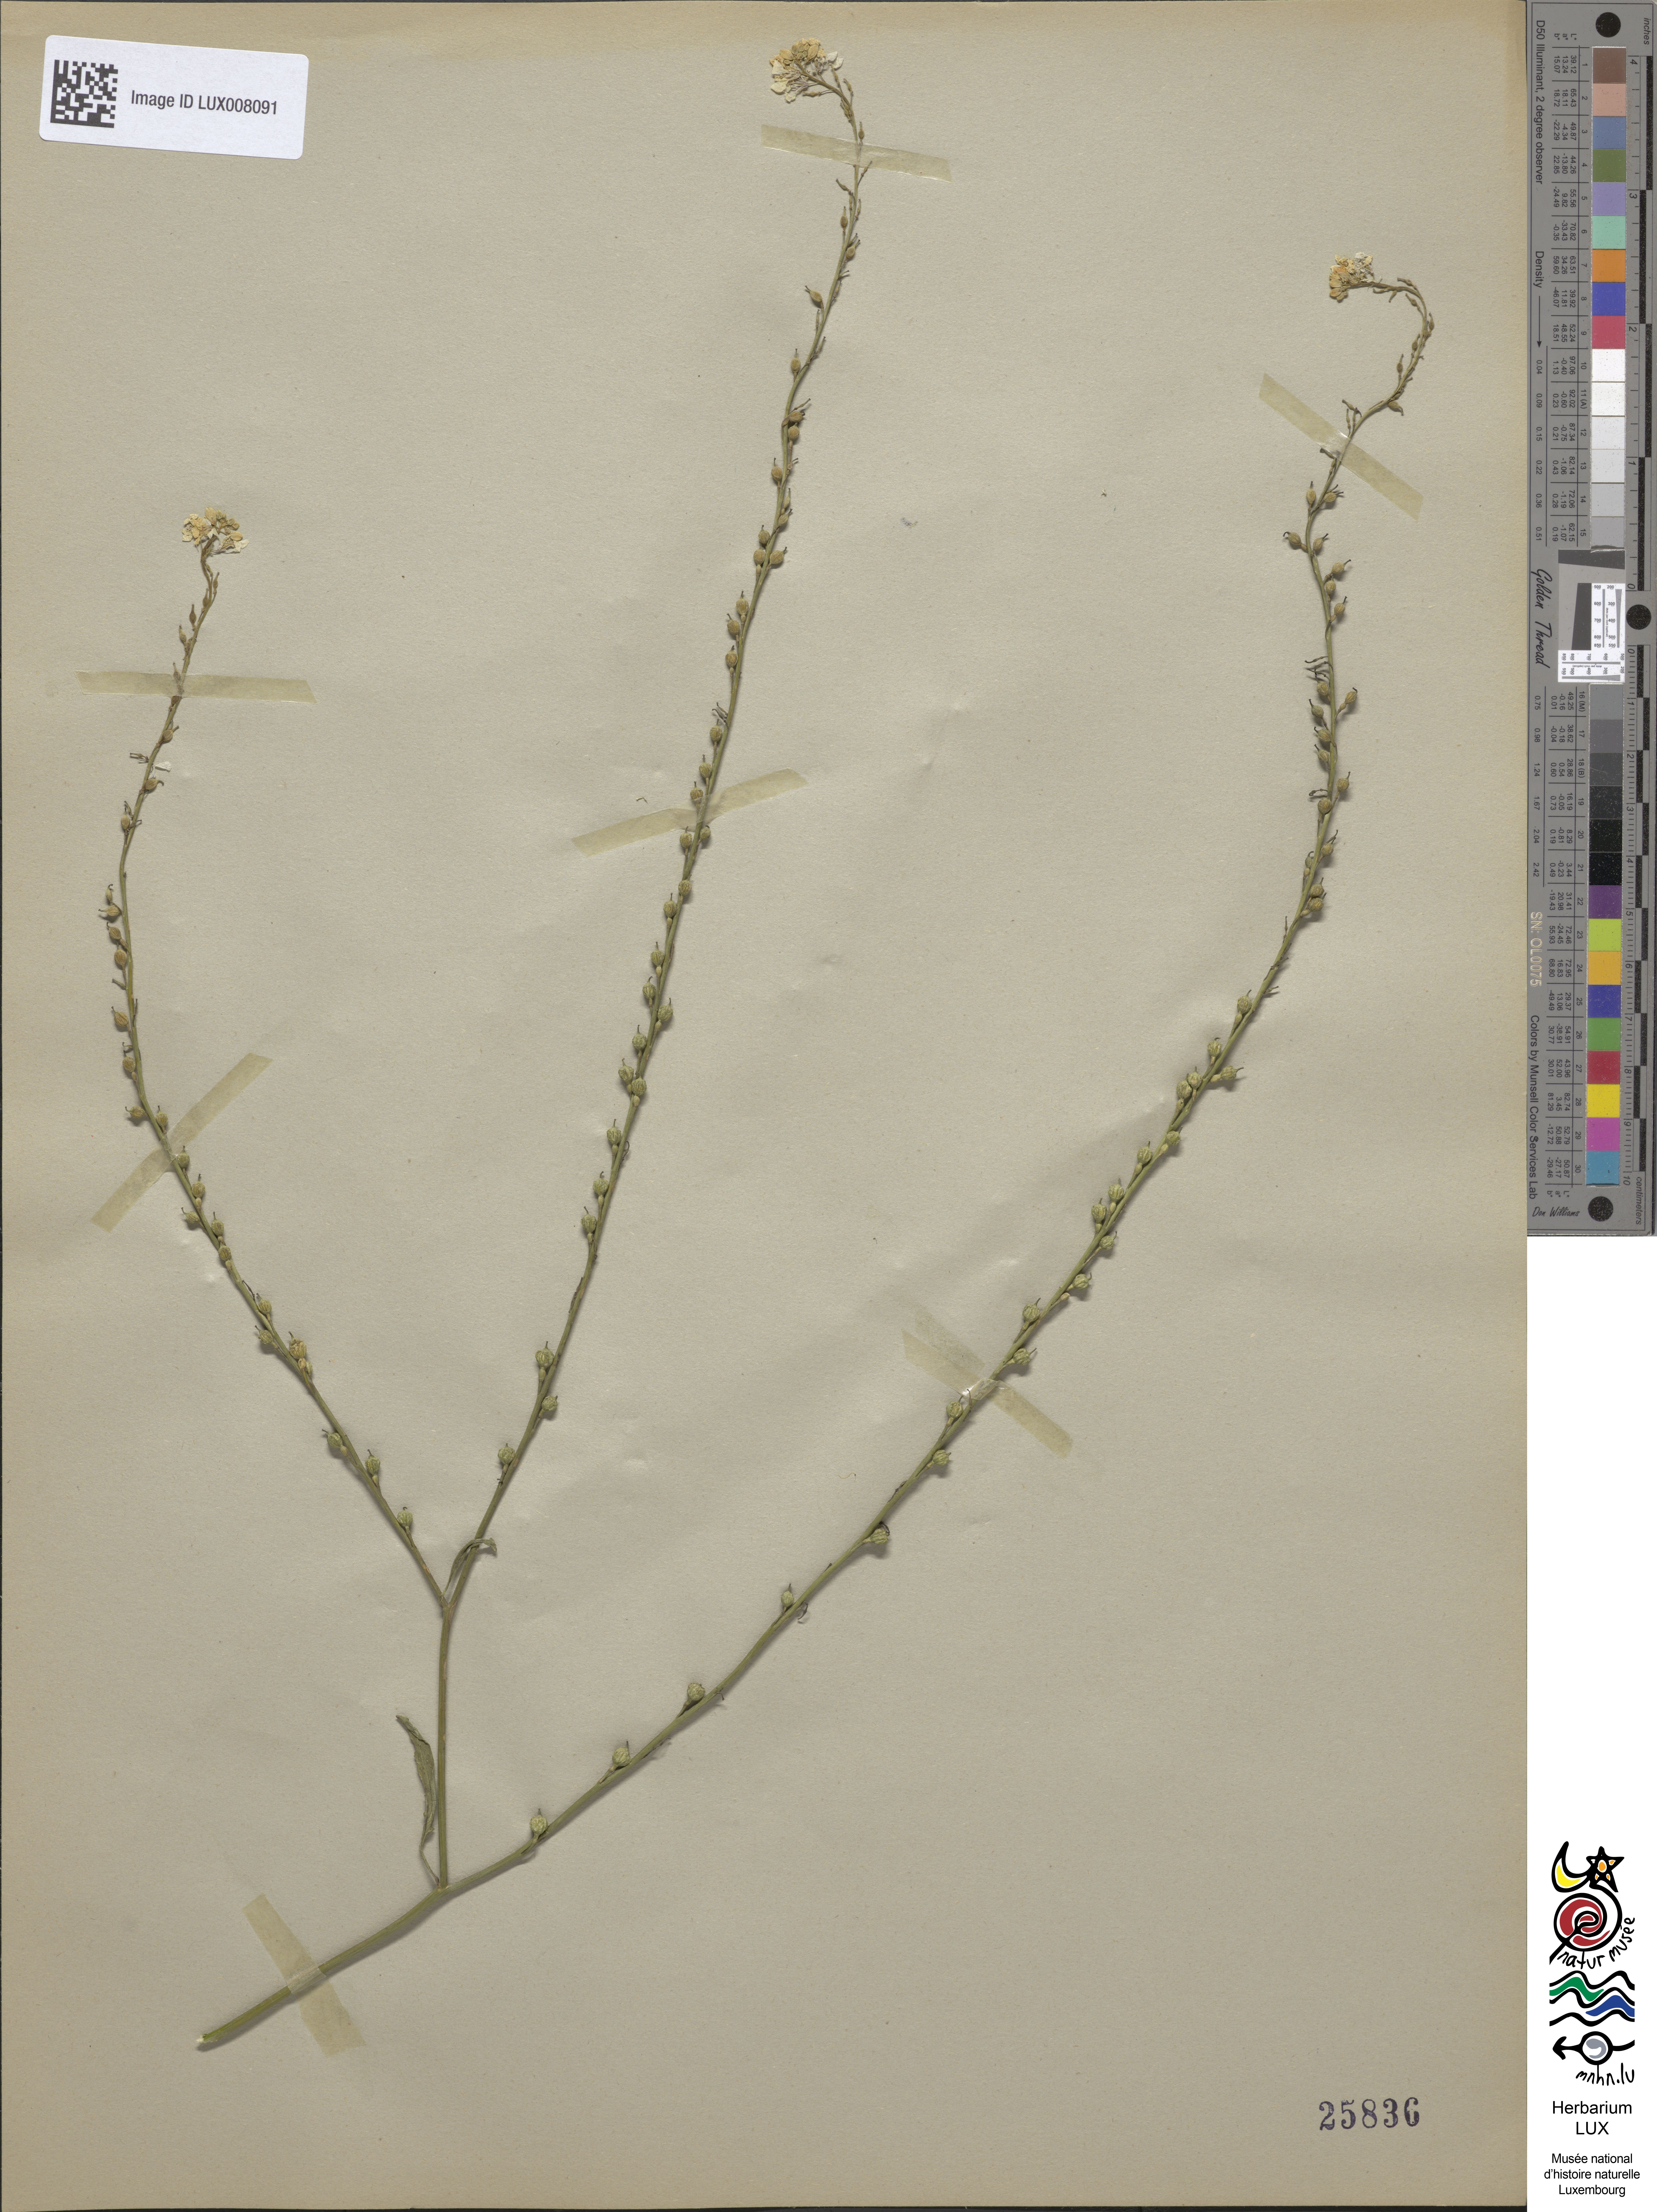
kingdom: Plantae
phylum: Tracheophyta
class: Magnoliopsida
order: Brassicales
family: Brassicaceae
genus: Rapistrum
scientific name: Rapistrum rugosum
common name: Annual bastardcabbage
